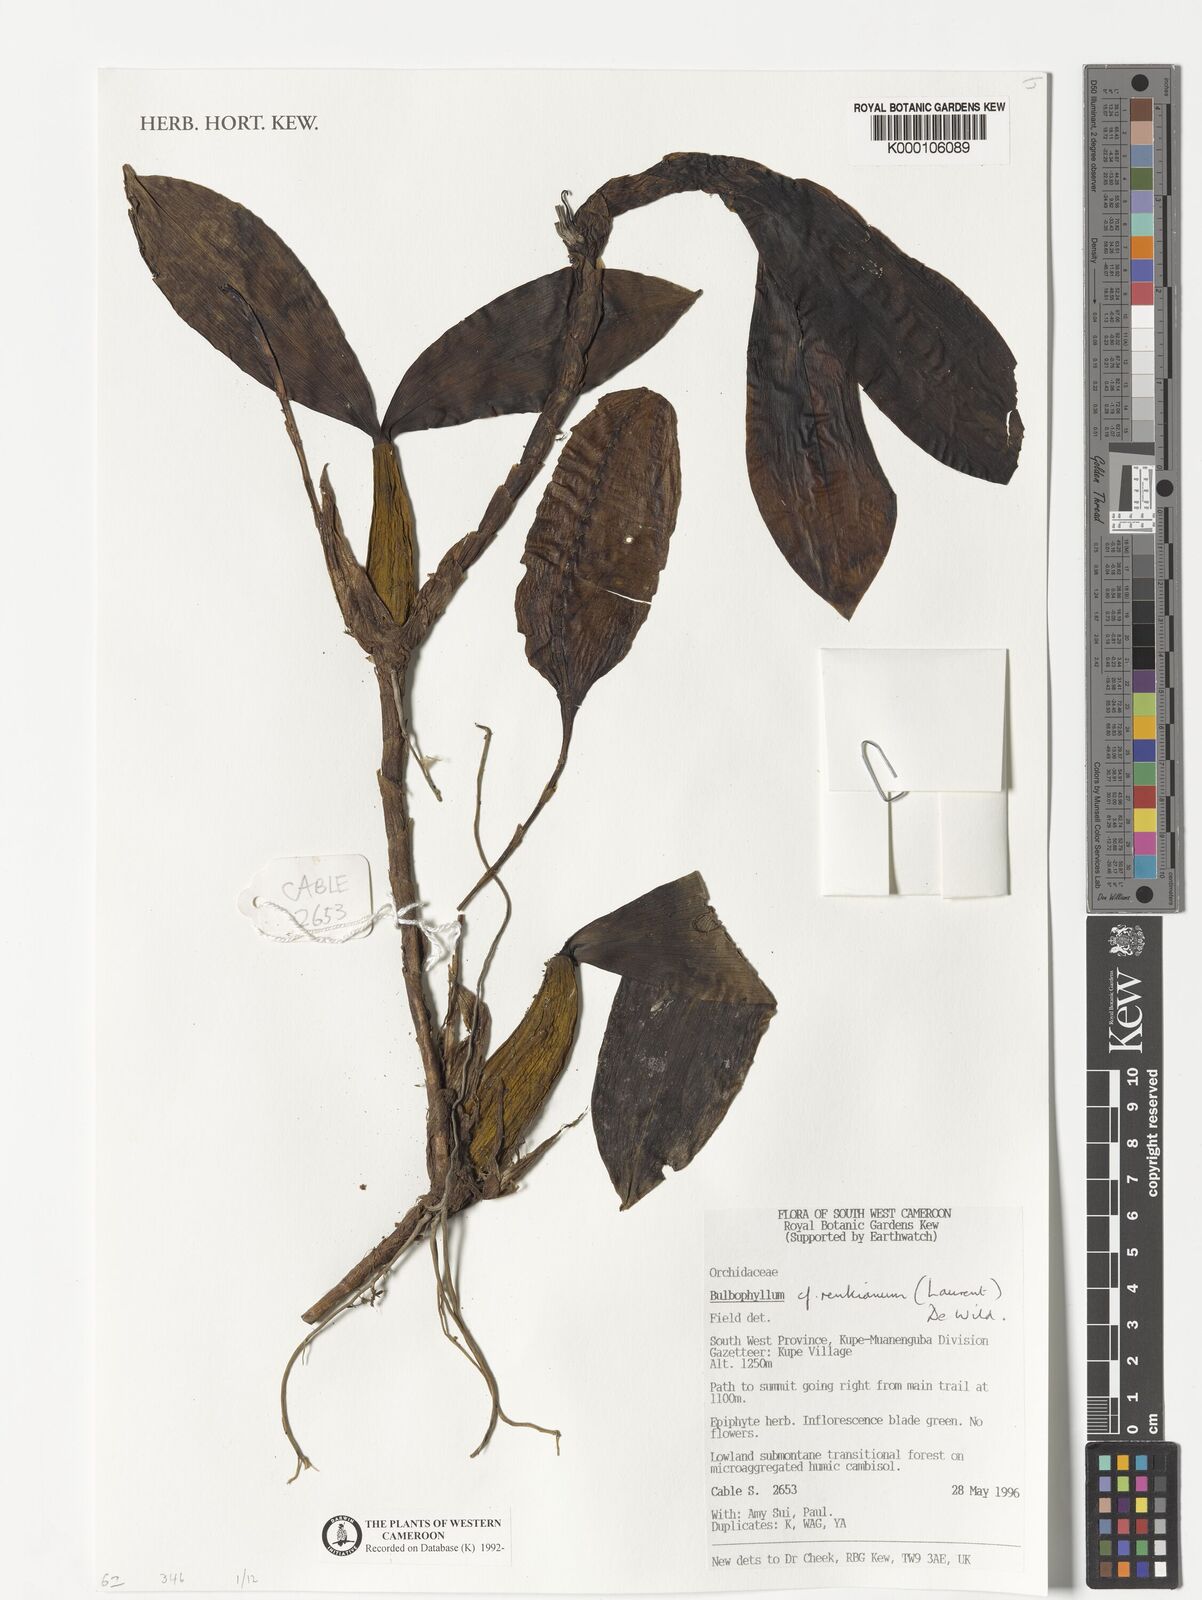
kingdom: Plantae
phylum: Tracheophyta
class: Liliopsida
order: Asparagales
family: Orchidaceae
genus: Bulbophyllum
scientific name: Bulbophyllum renkinianum
